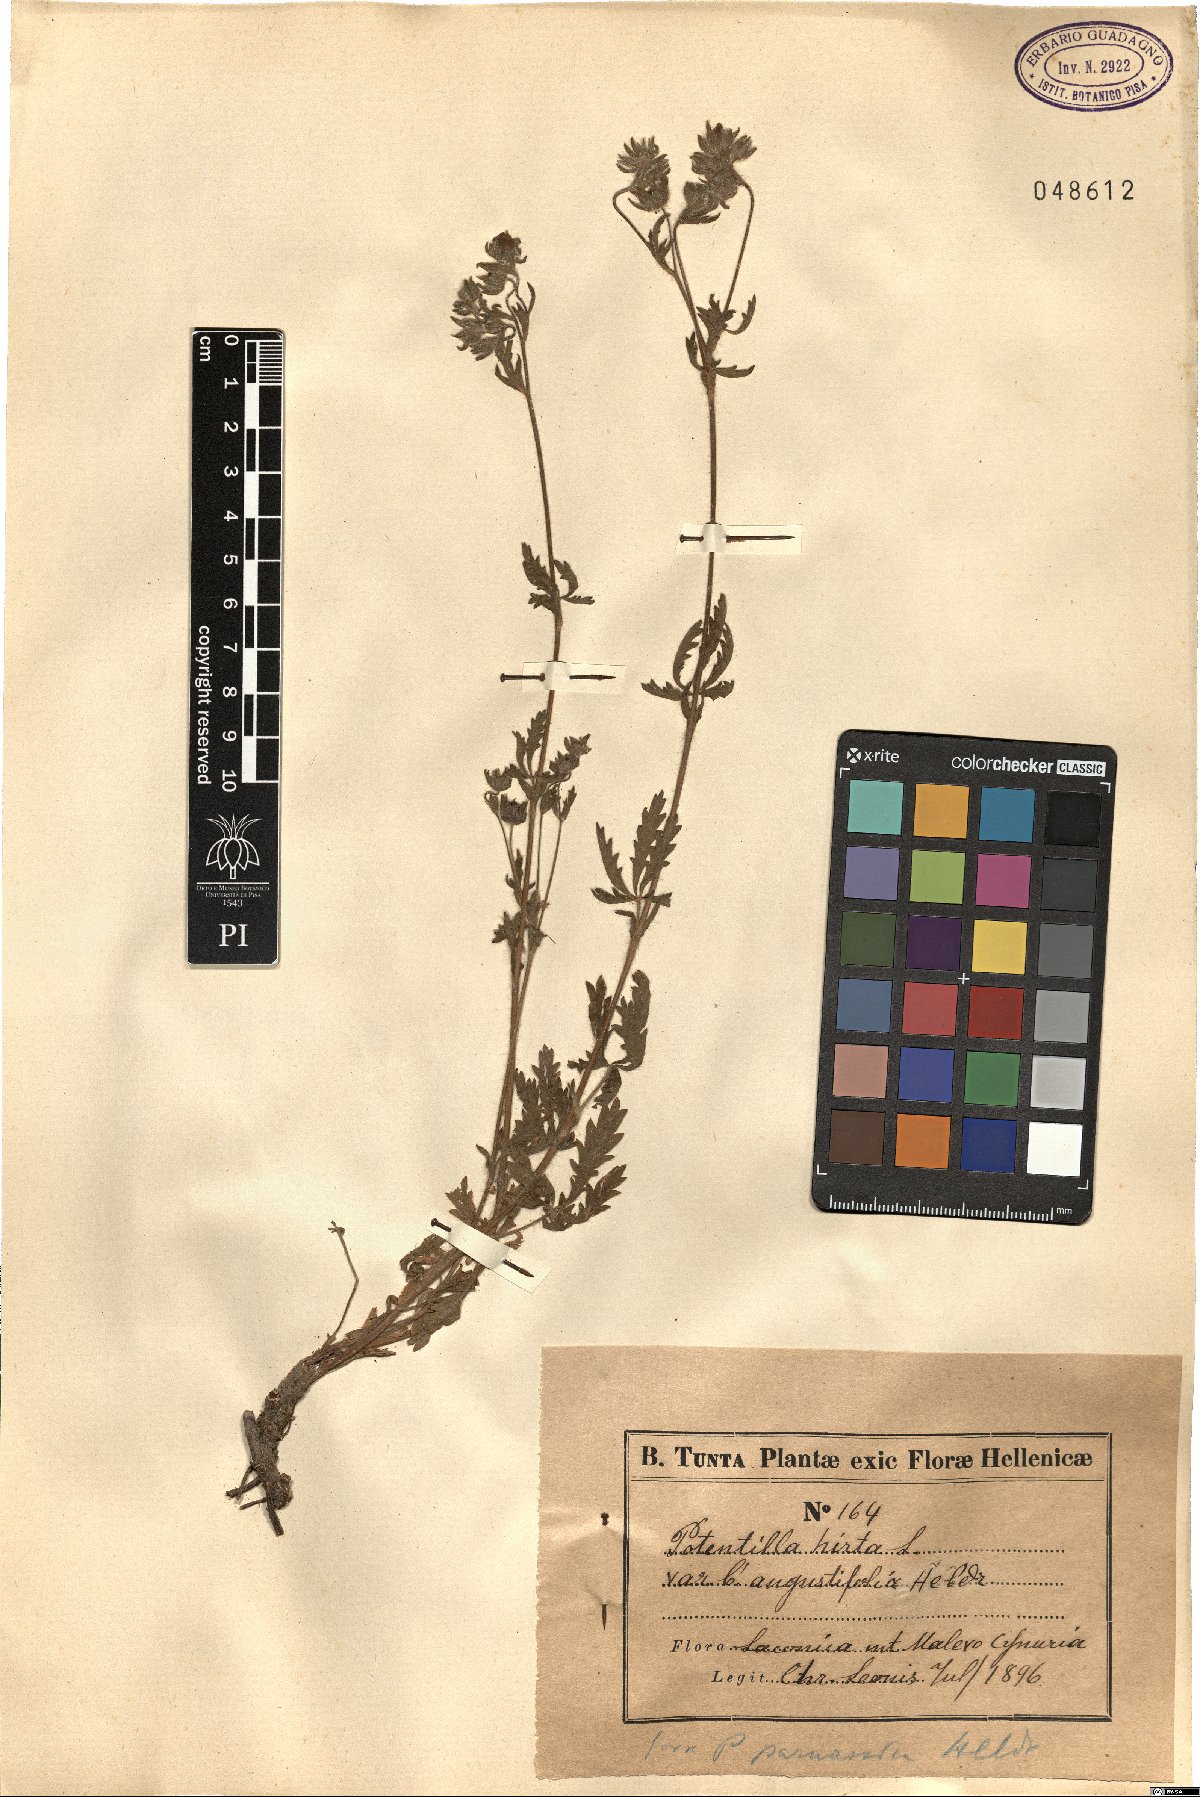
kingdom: Plantae
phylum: Tracheophyta
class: Magnoliopsida
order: Rosales
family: Rosaceae
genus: Potentilla
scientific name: Potentilla pedata
